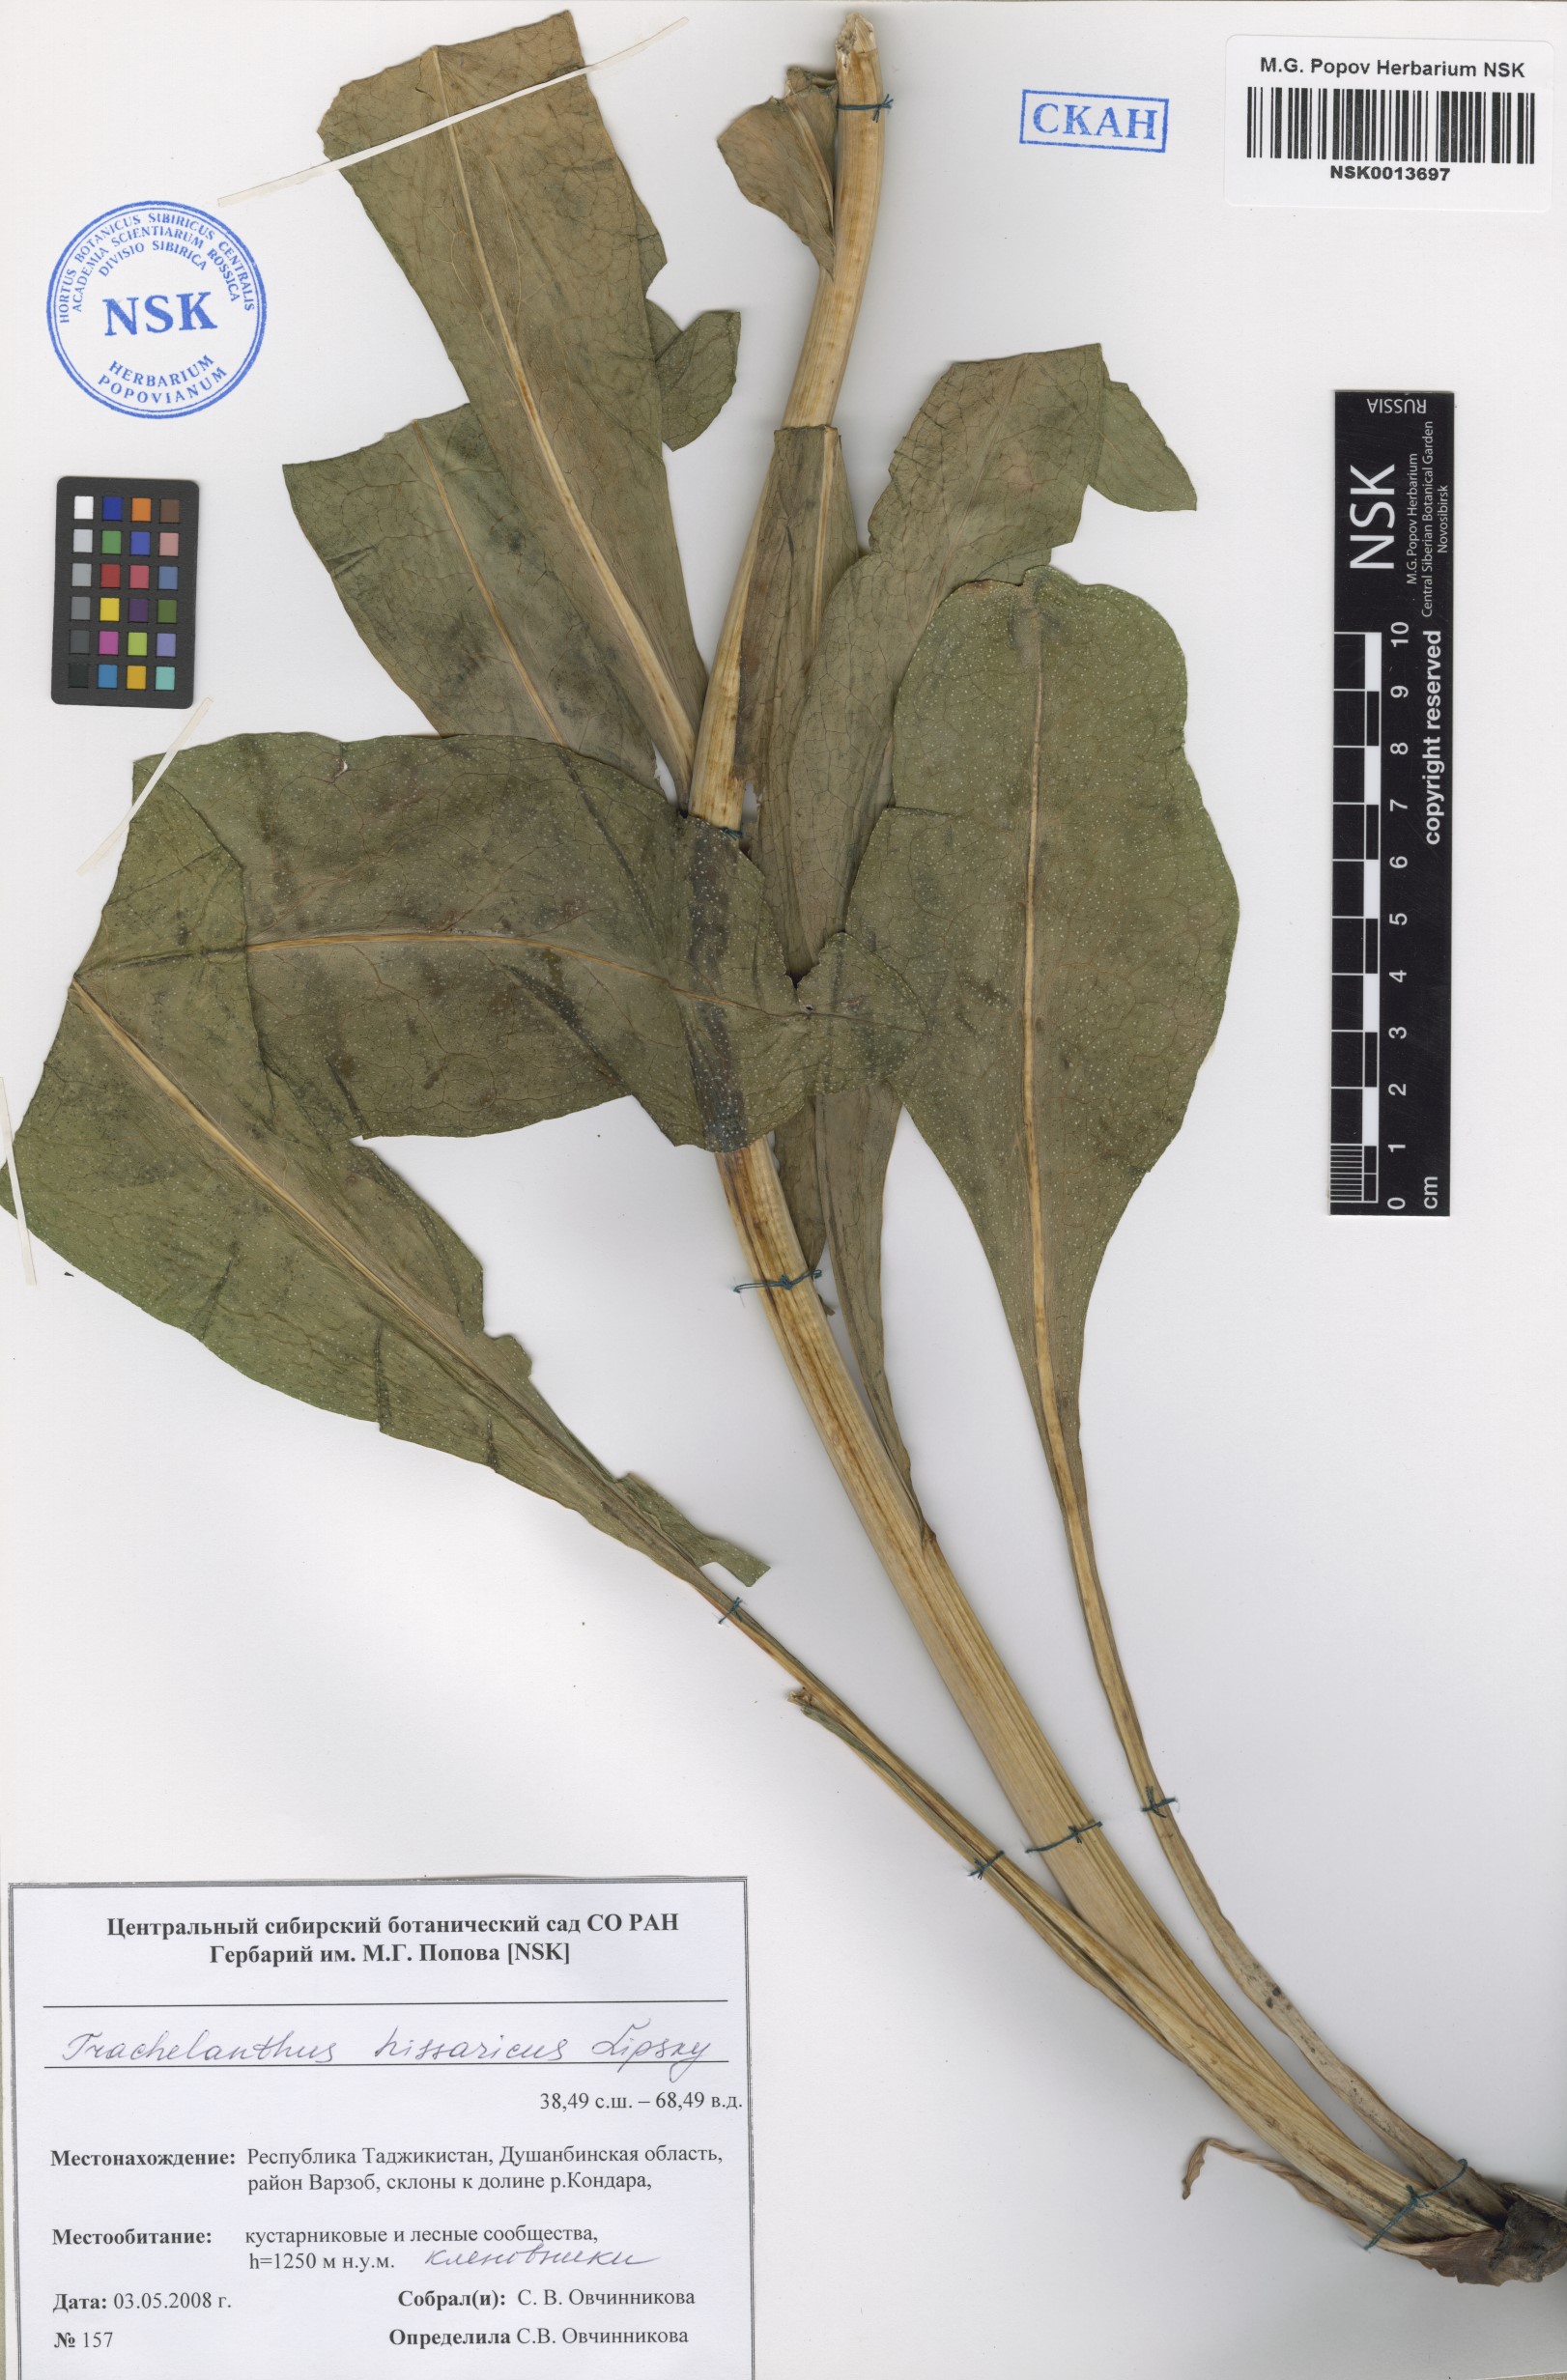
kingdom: Plantae
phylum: Tracheophyta
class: Magnoliopsida
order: Boraginales
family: Boraginaceae
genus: Lindelofia
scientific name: Lindelofia hissarica
